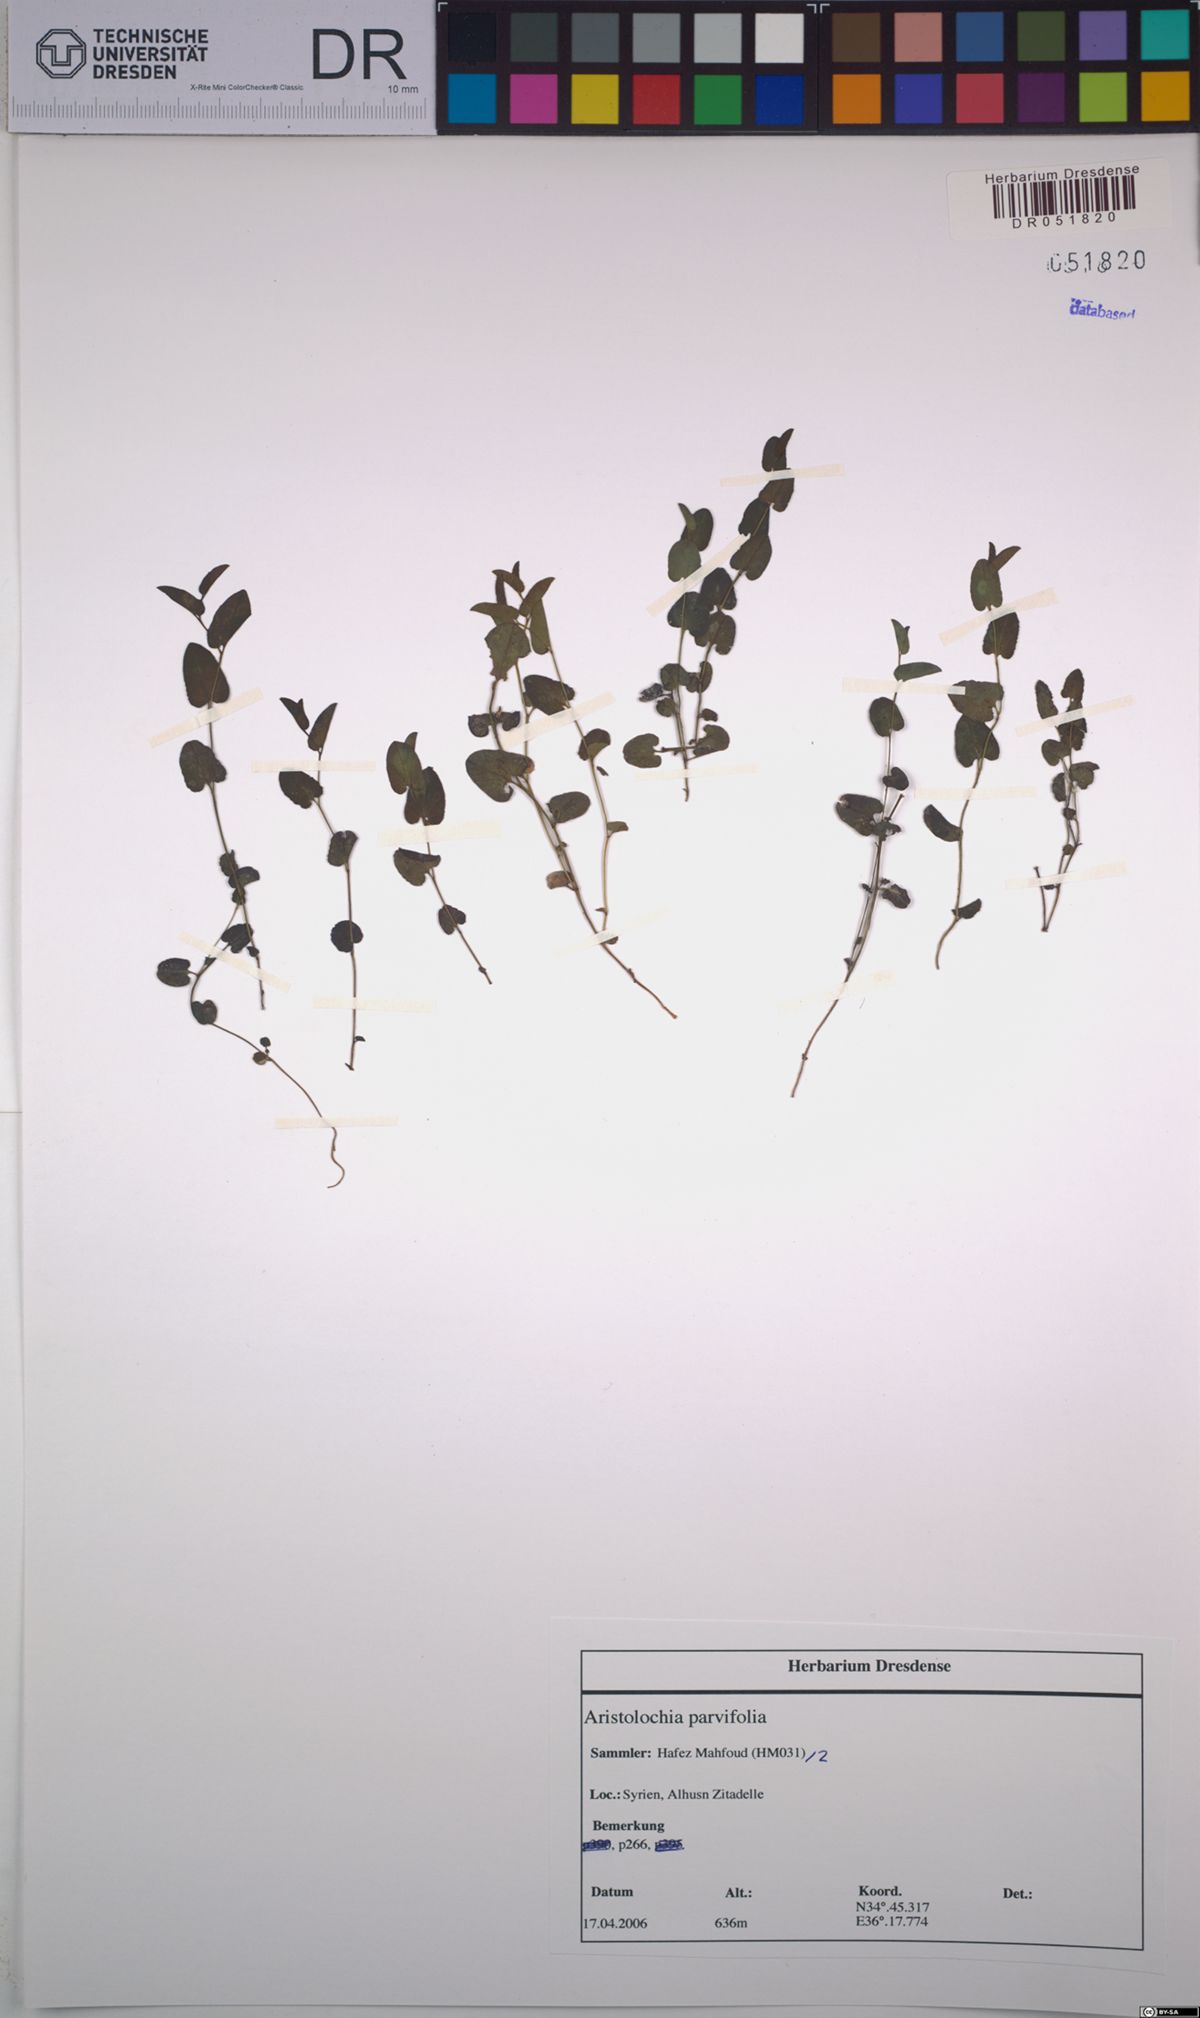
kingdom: Plantae
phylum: Tracheophyta
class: Magnoliopsida
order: Piperales
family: Aristolochiaceae
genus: Aristolochia
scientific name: Aristolochia parvifolia
